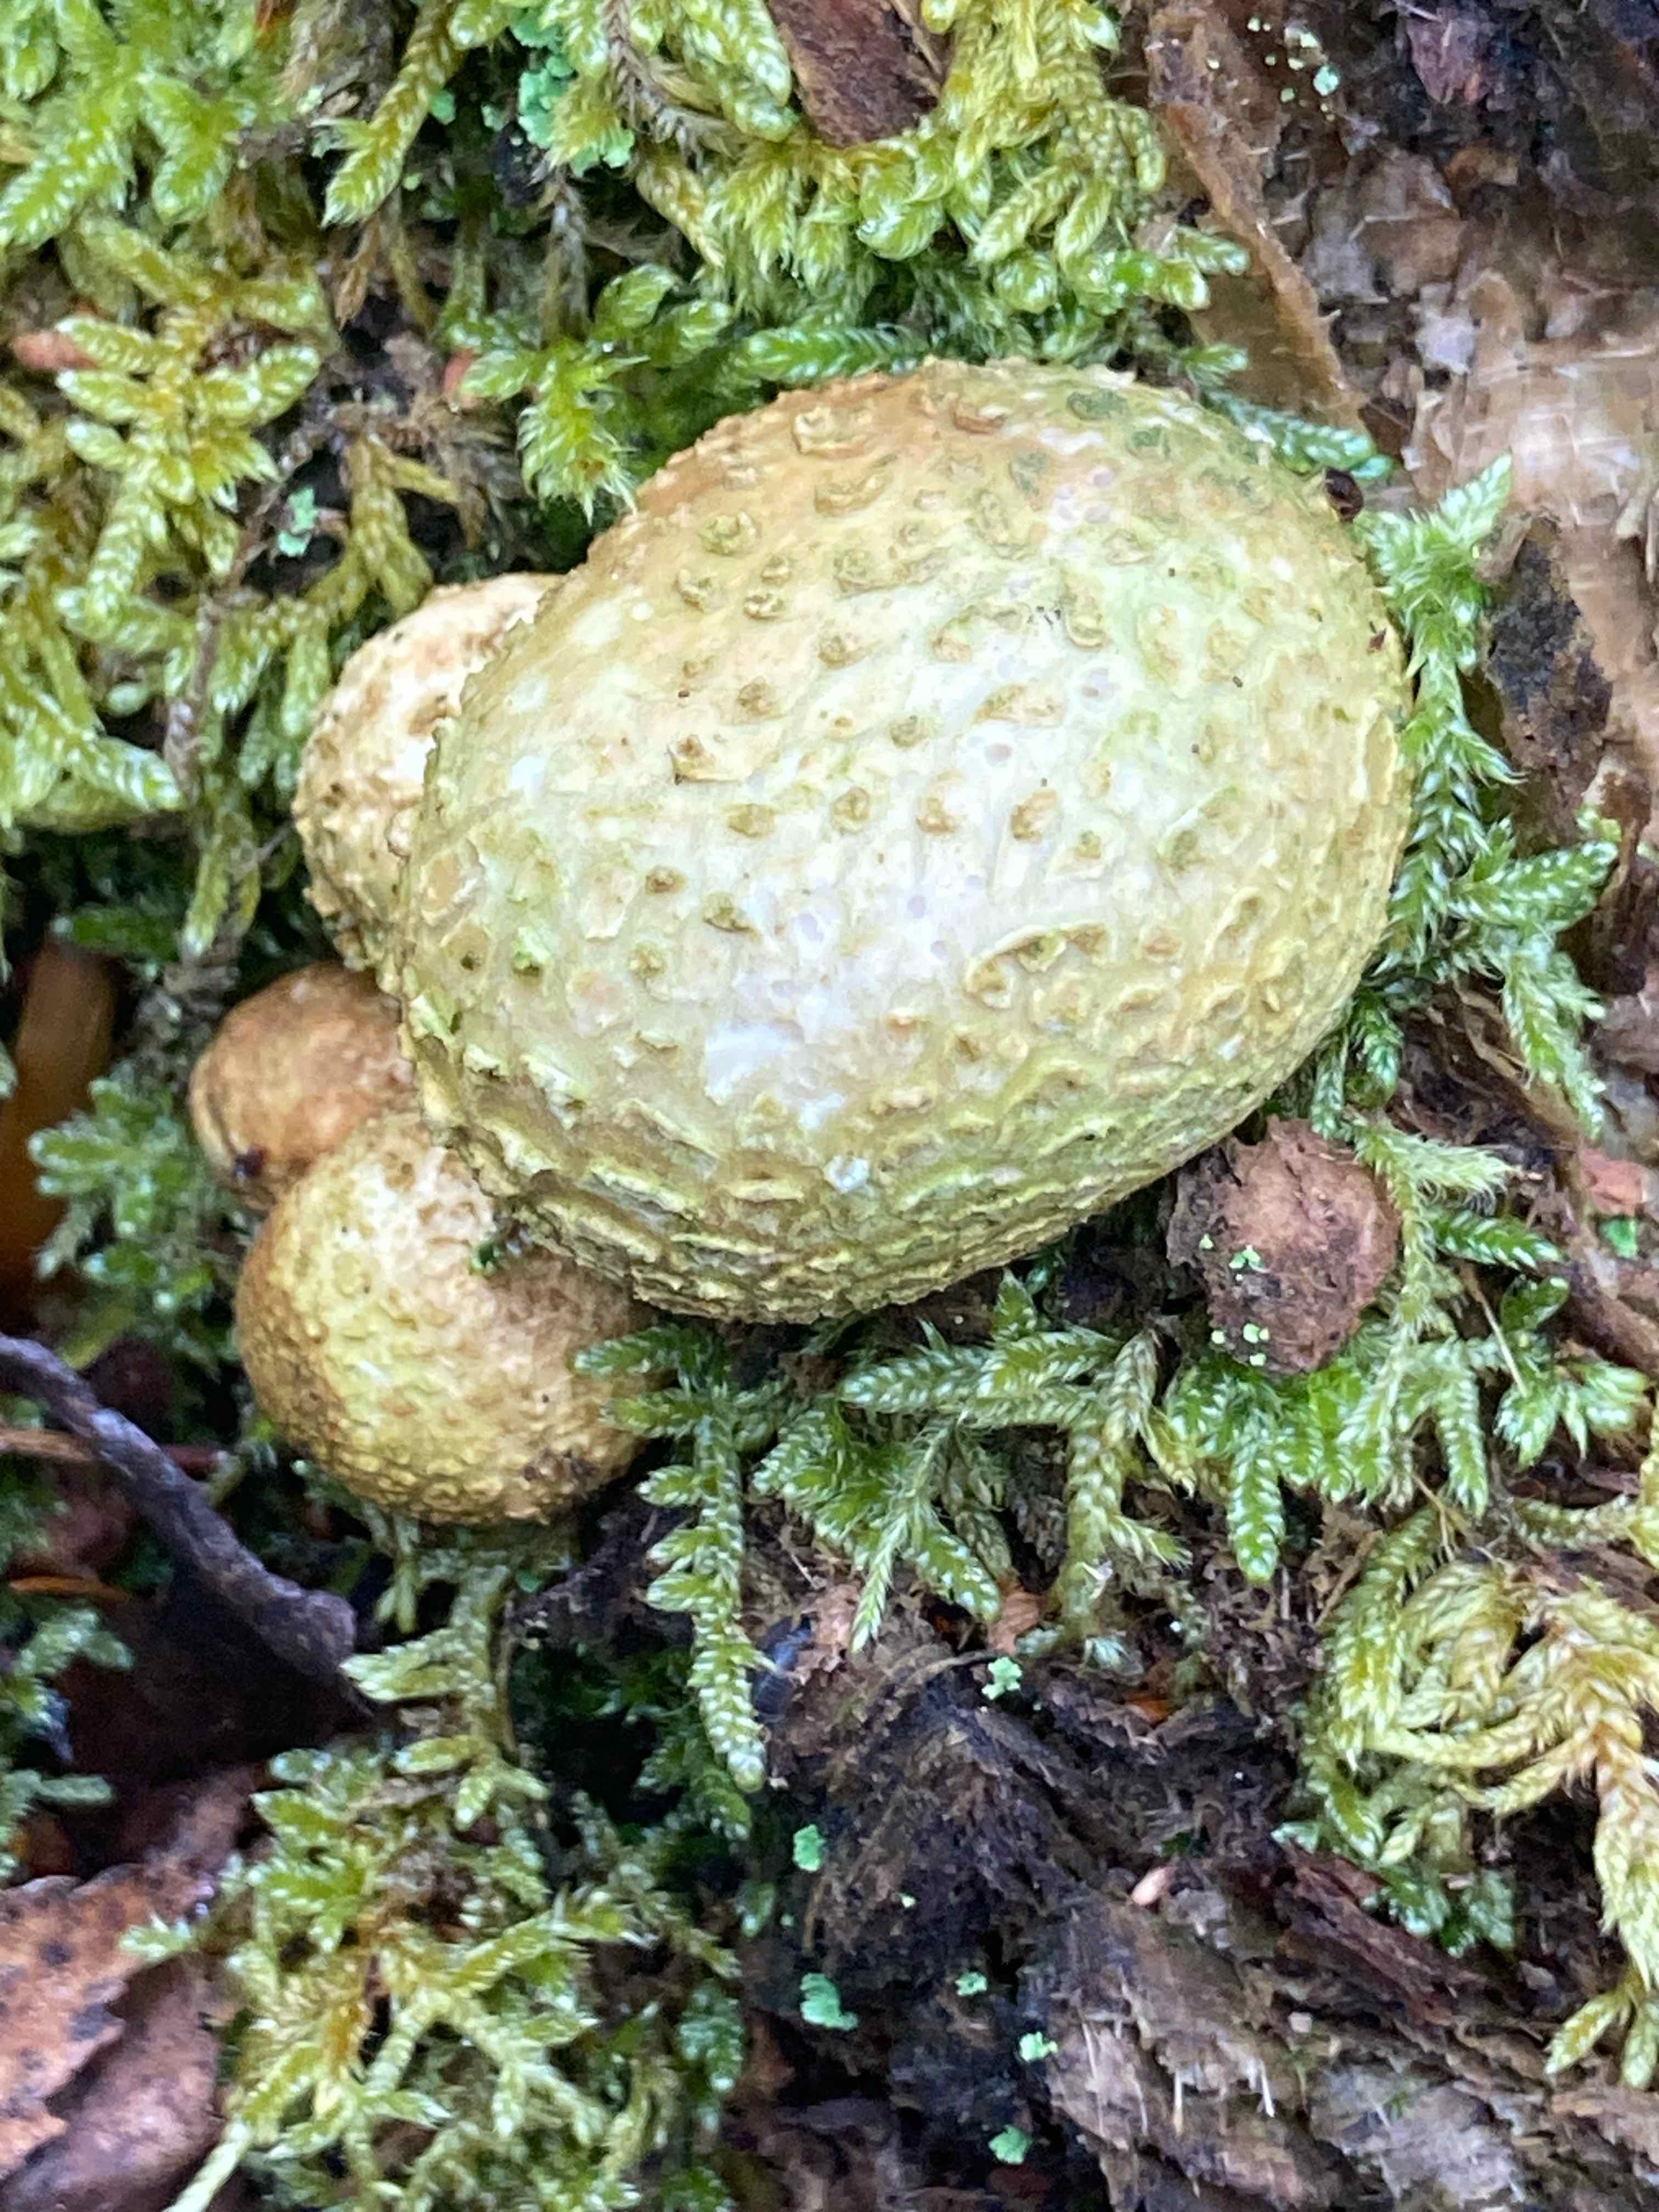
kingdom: Fungi
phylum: Basidiomycota
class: Agaricomycetes
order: Boletales
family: Sclerodermataceae
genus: Scleroderma
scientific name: Scleroderma citrinum
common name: almindelig bruskbold
